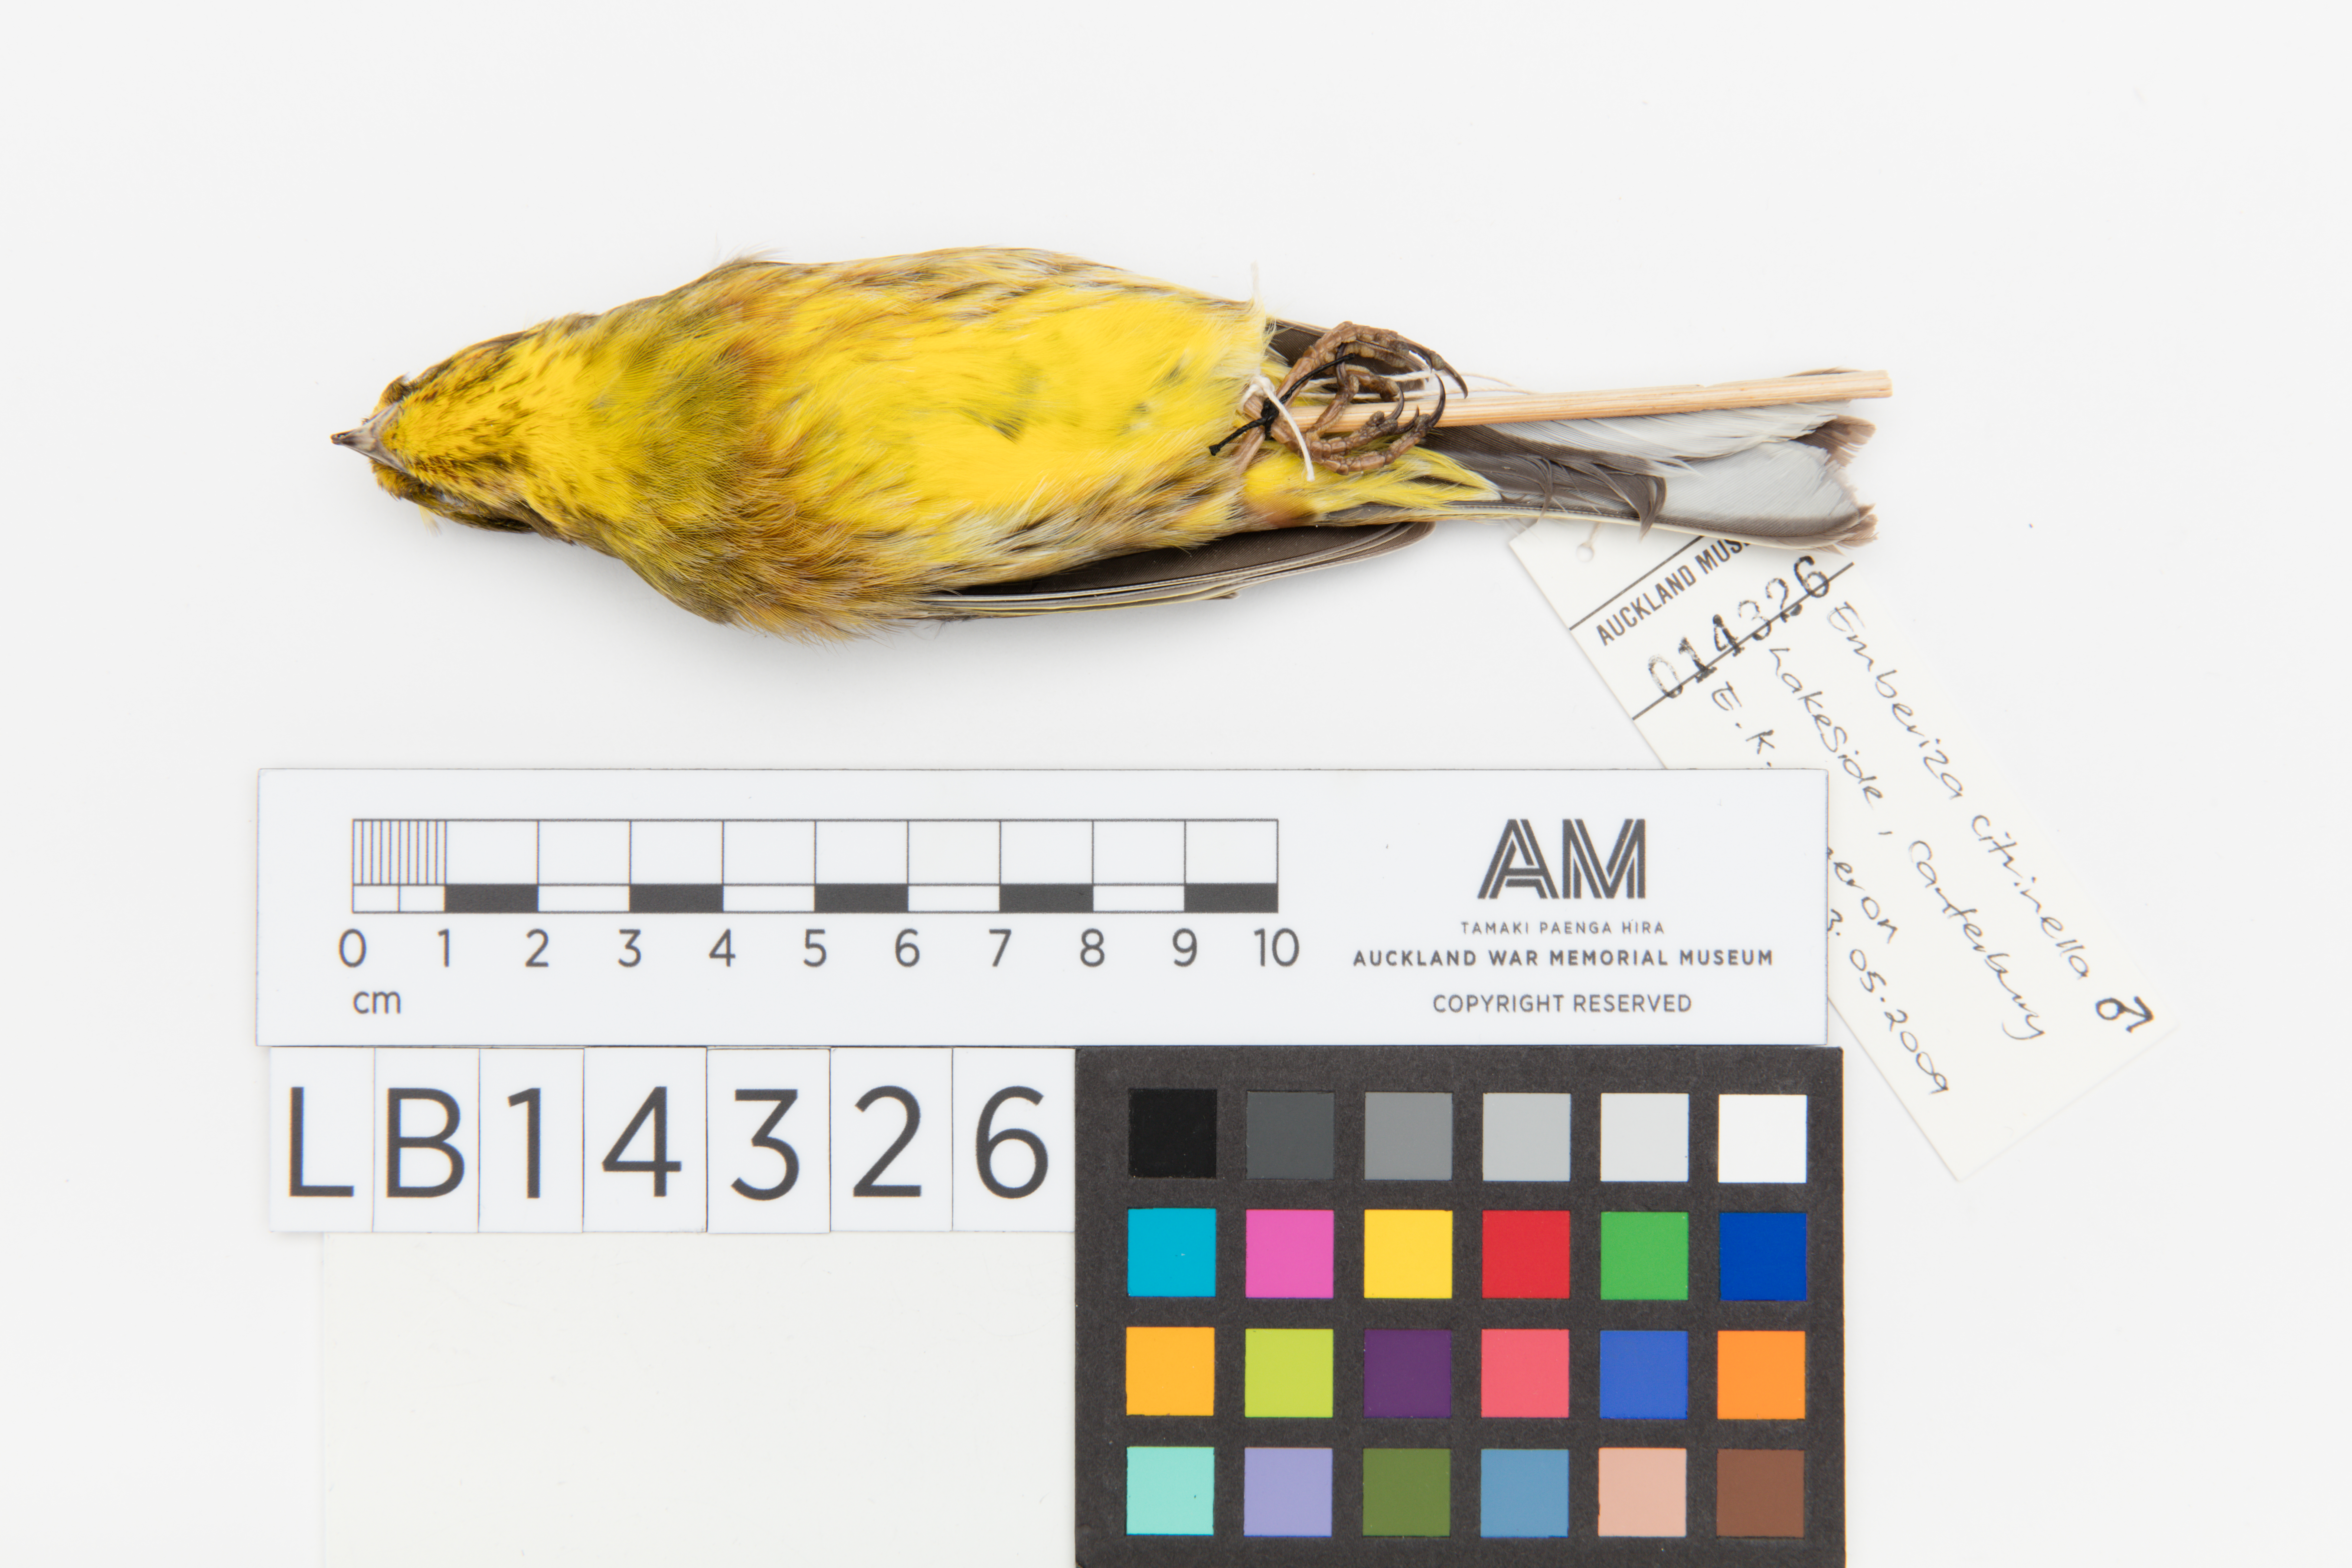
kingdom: Animalia
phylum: Chordata
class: Aves
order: Passeriformes
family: Emberizidae
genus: Emberiza
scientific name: Emberiza citrinella
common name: Yellowhammer
